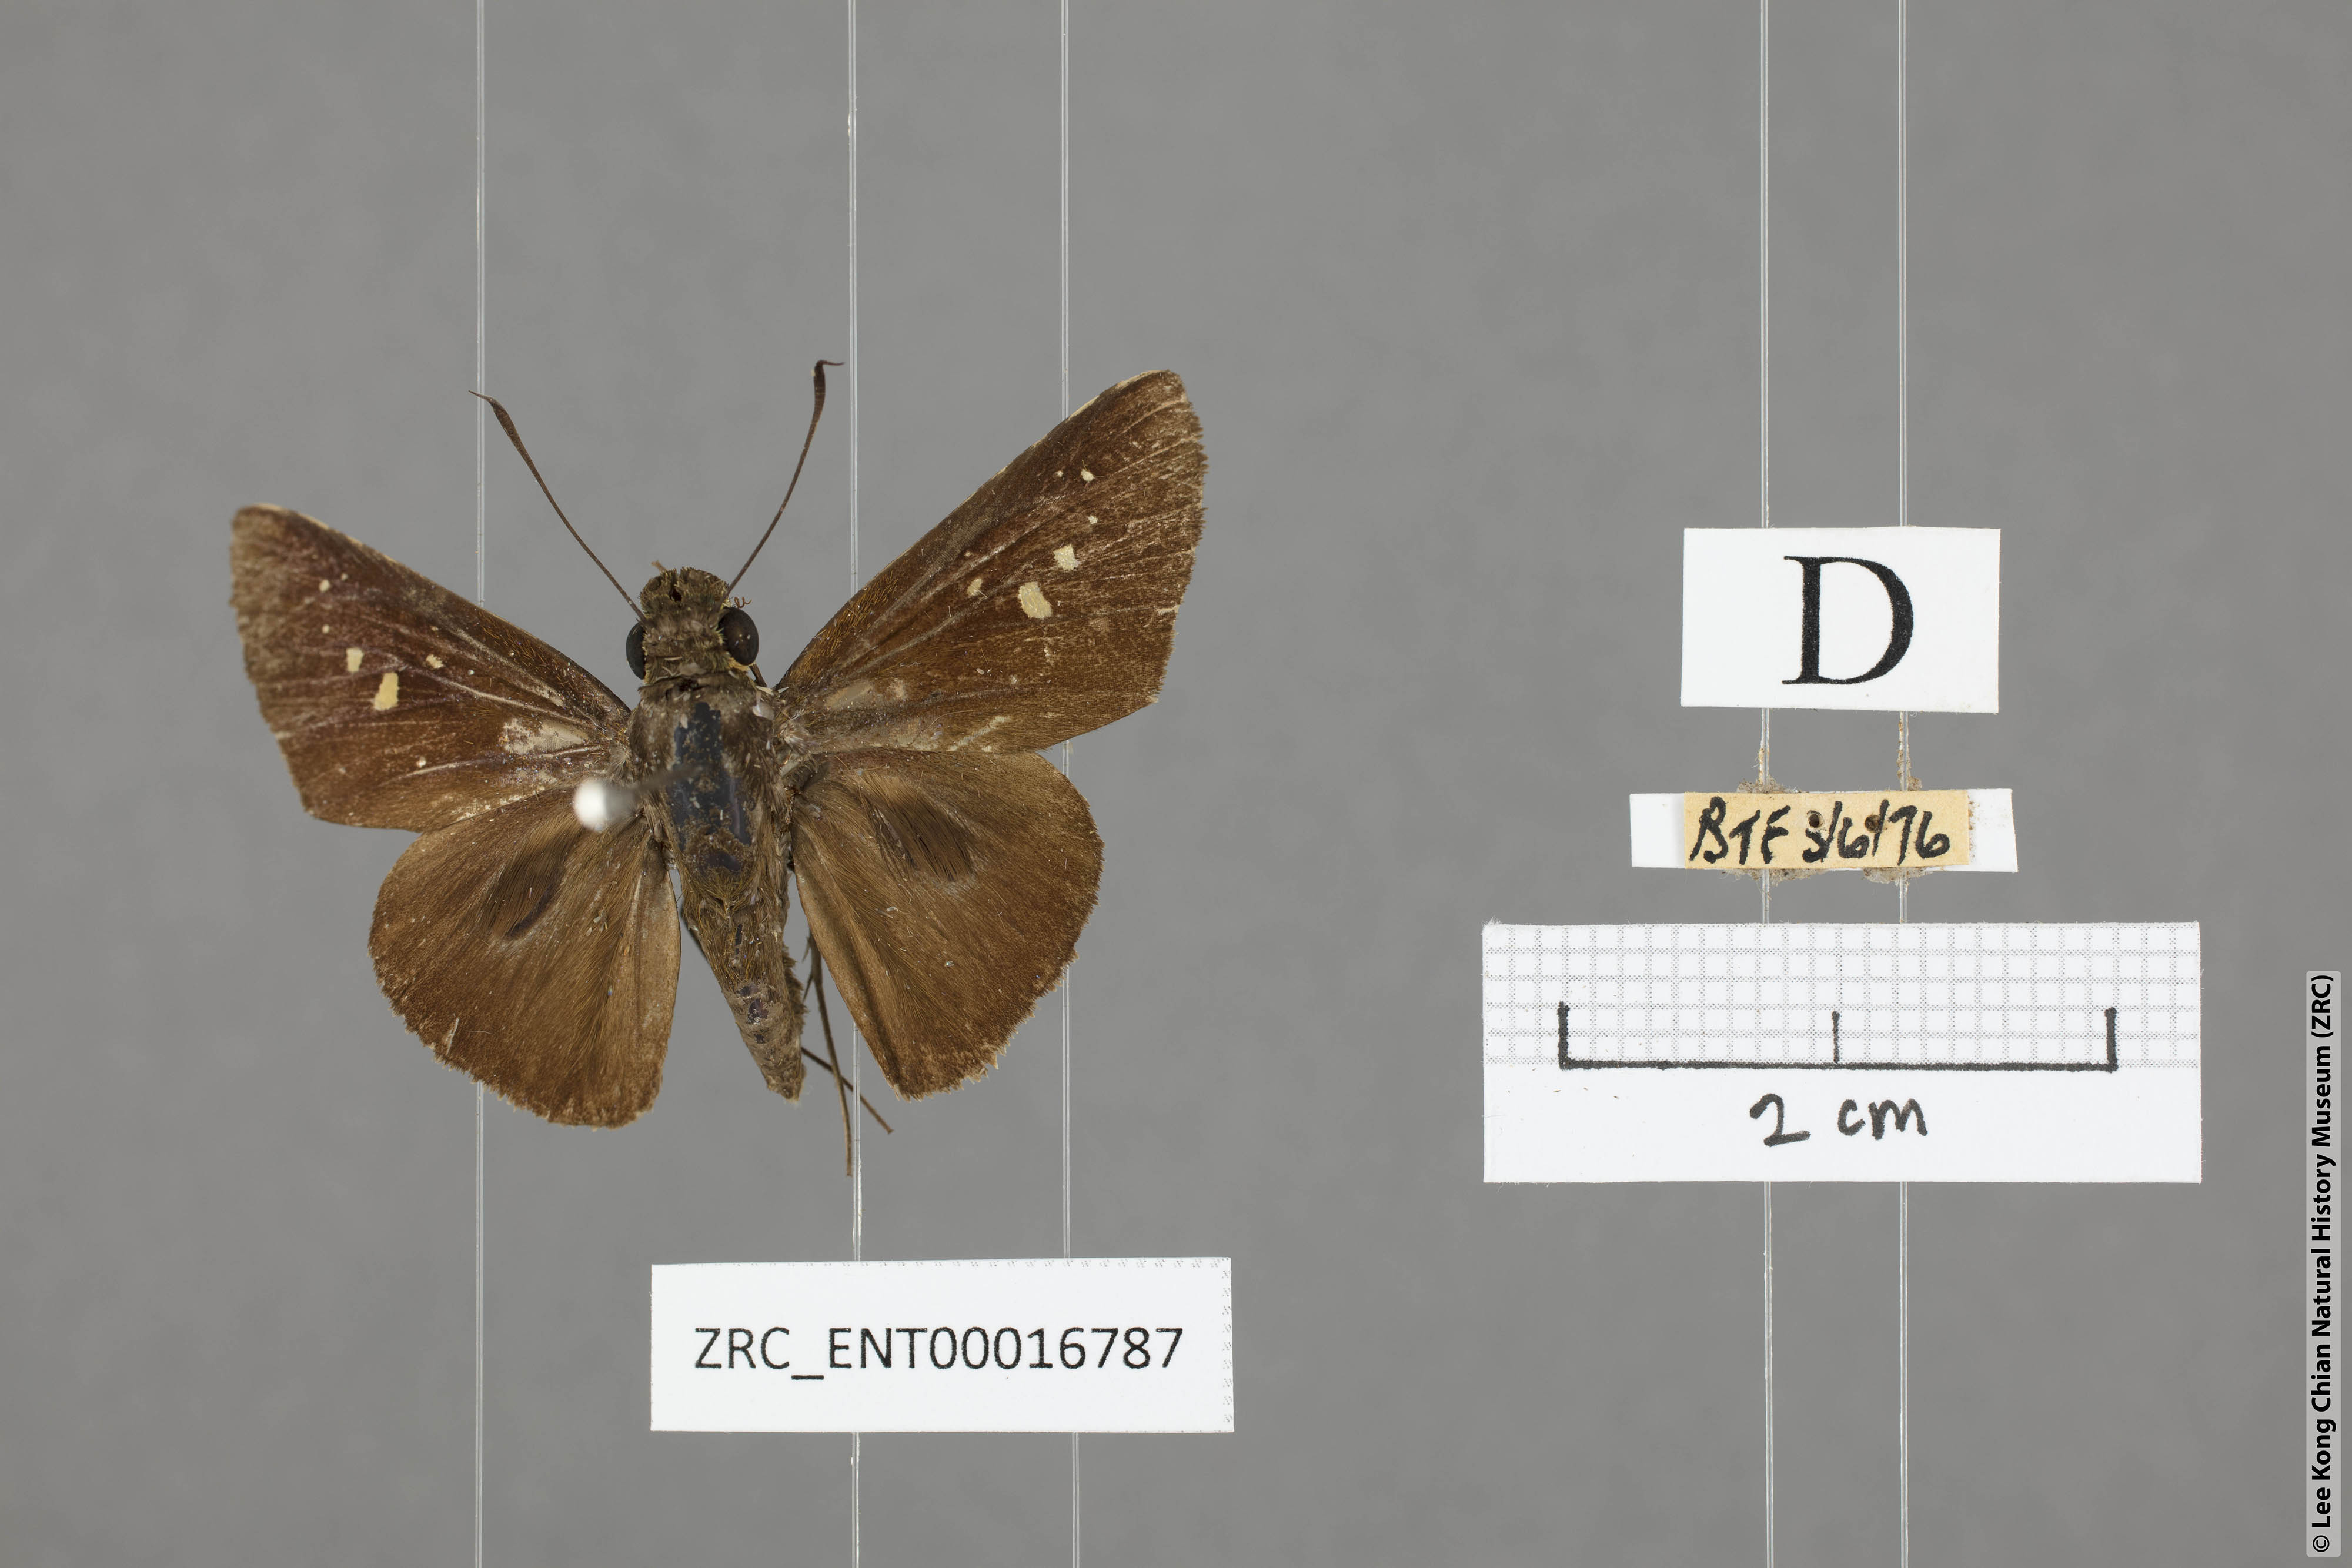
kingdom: Animalia
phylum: Arthropoda
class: Insecta
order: Lepidoptera
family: Hesperiidae
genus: Baoris
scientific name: Baoris oceia
